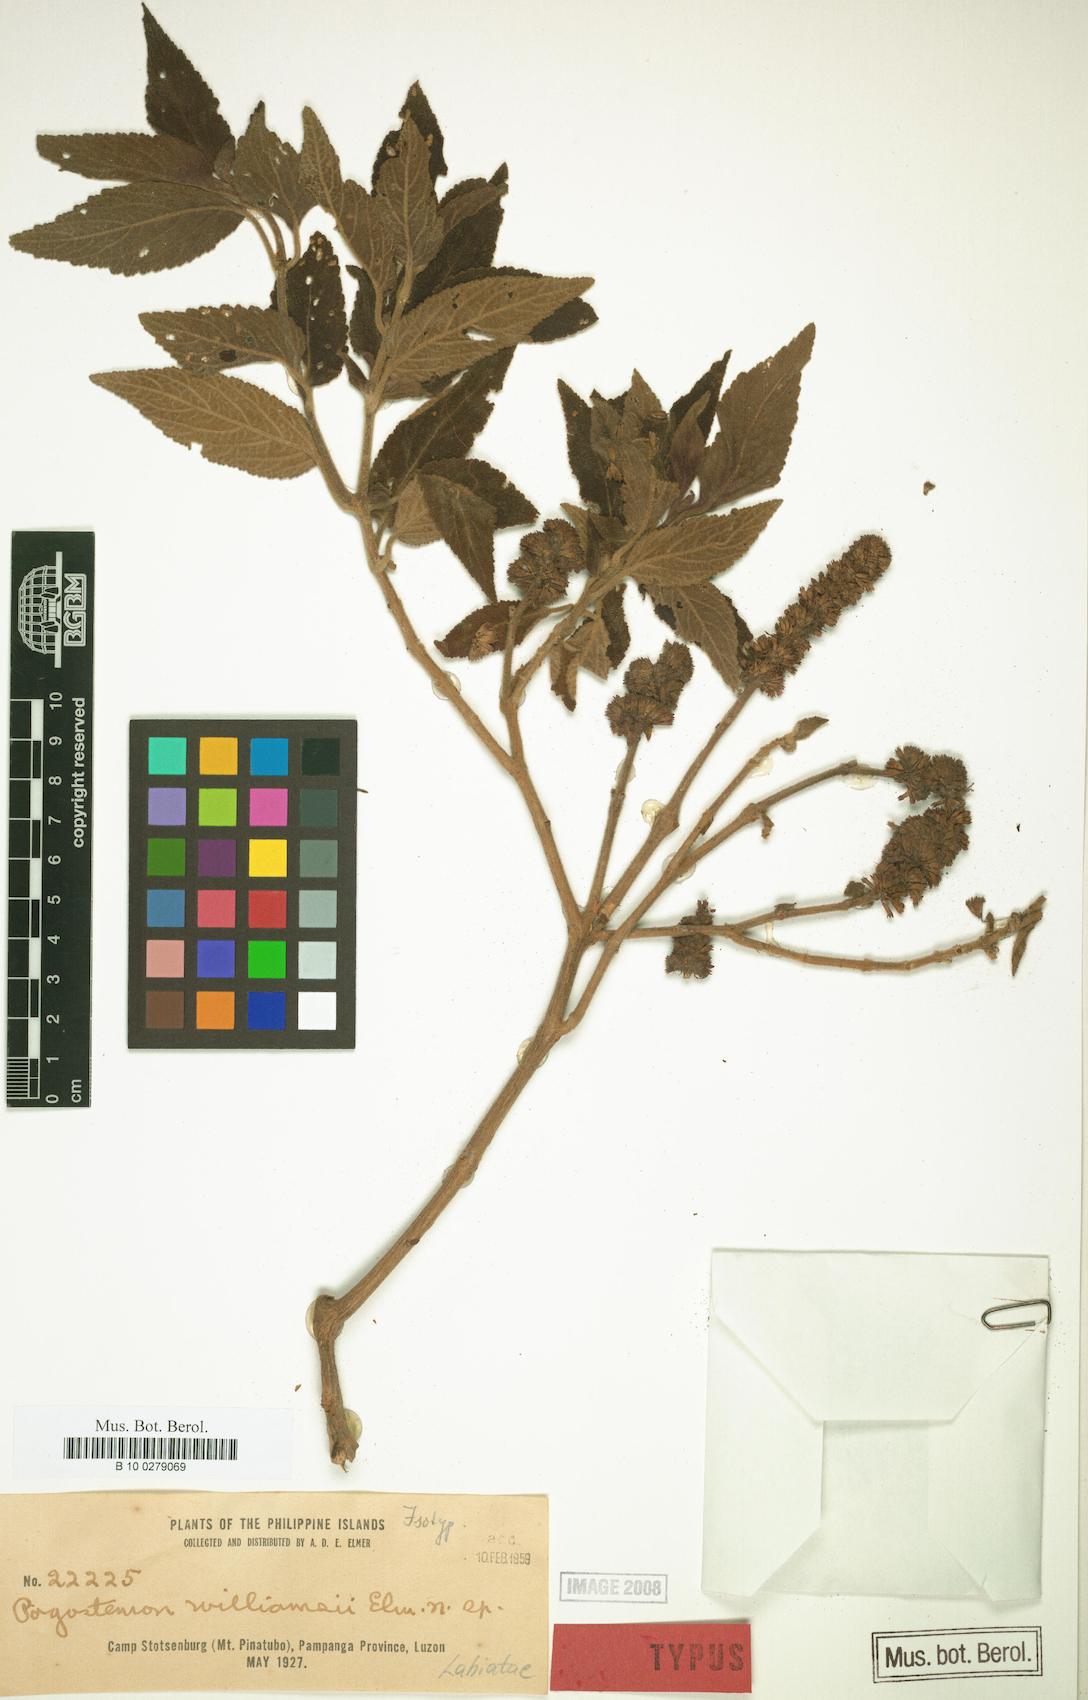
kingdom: Plantae
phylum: Tracheophyta
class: Magnoliopsida
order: Lamiales
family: Lamiaceae
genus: Pogostemon
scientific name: Pogostemon velatus
